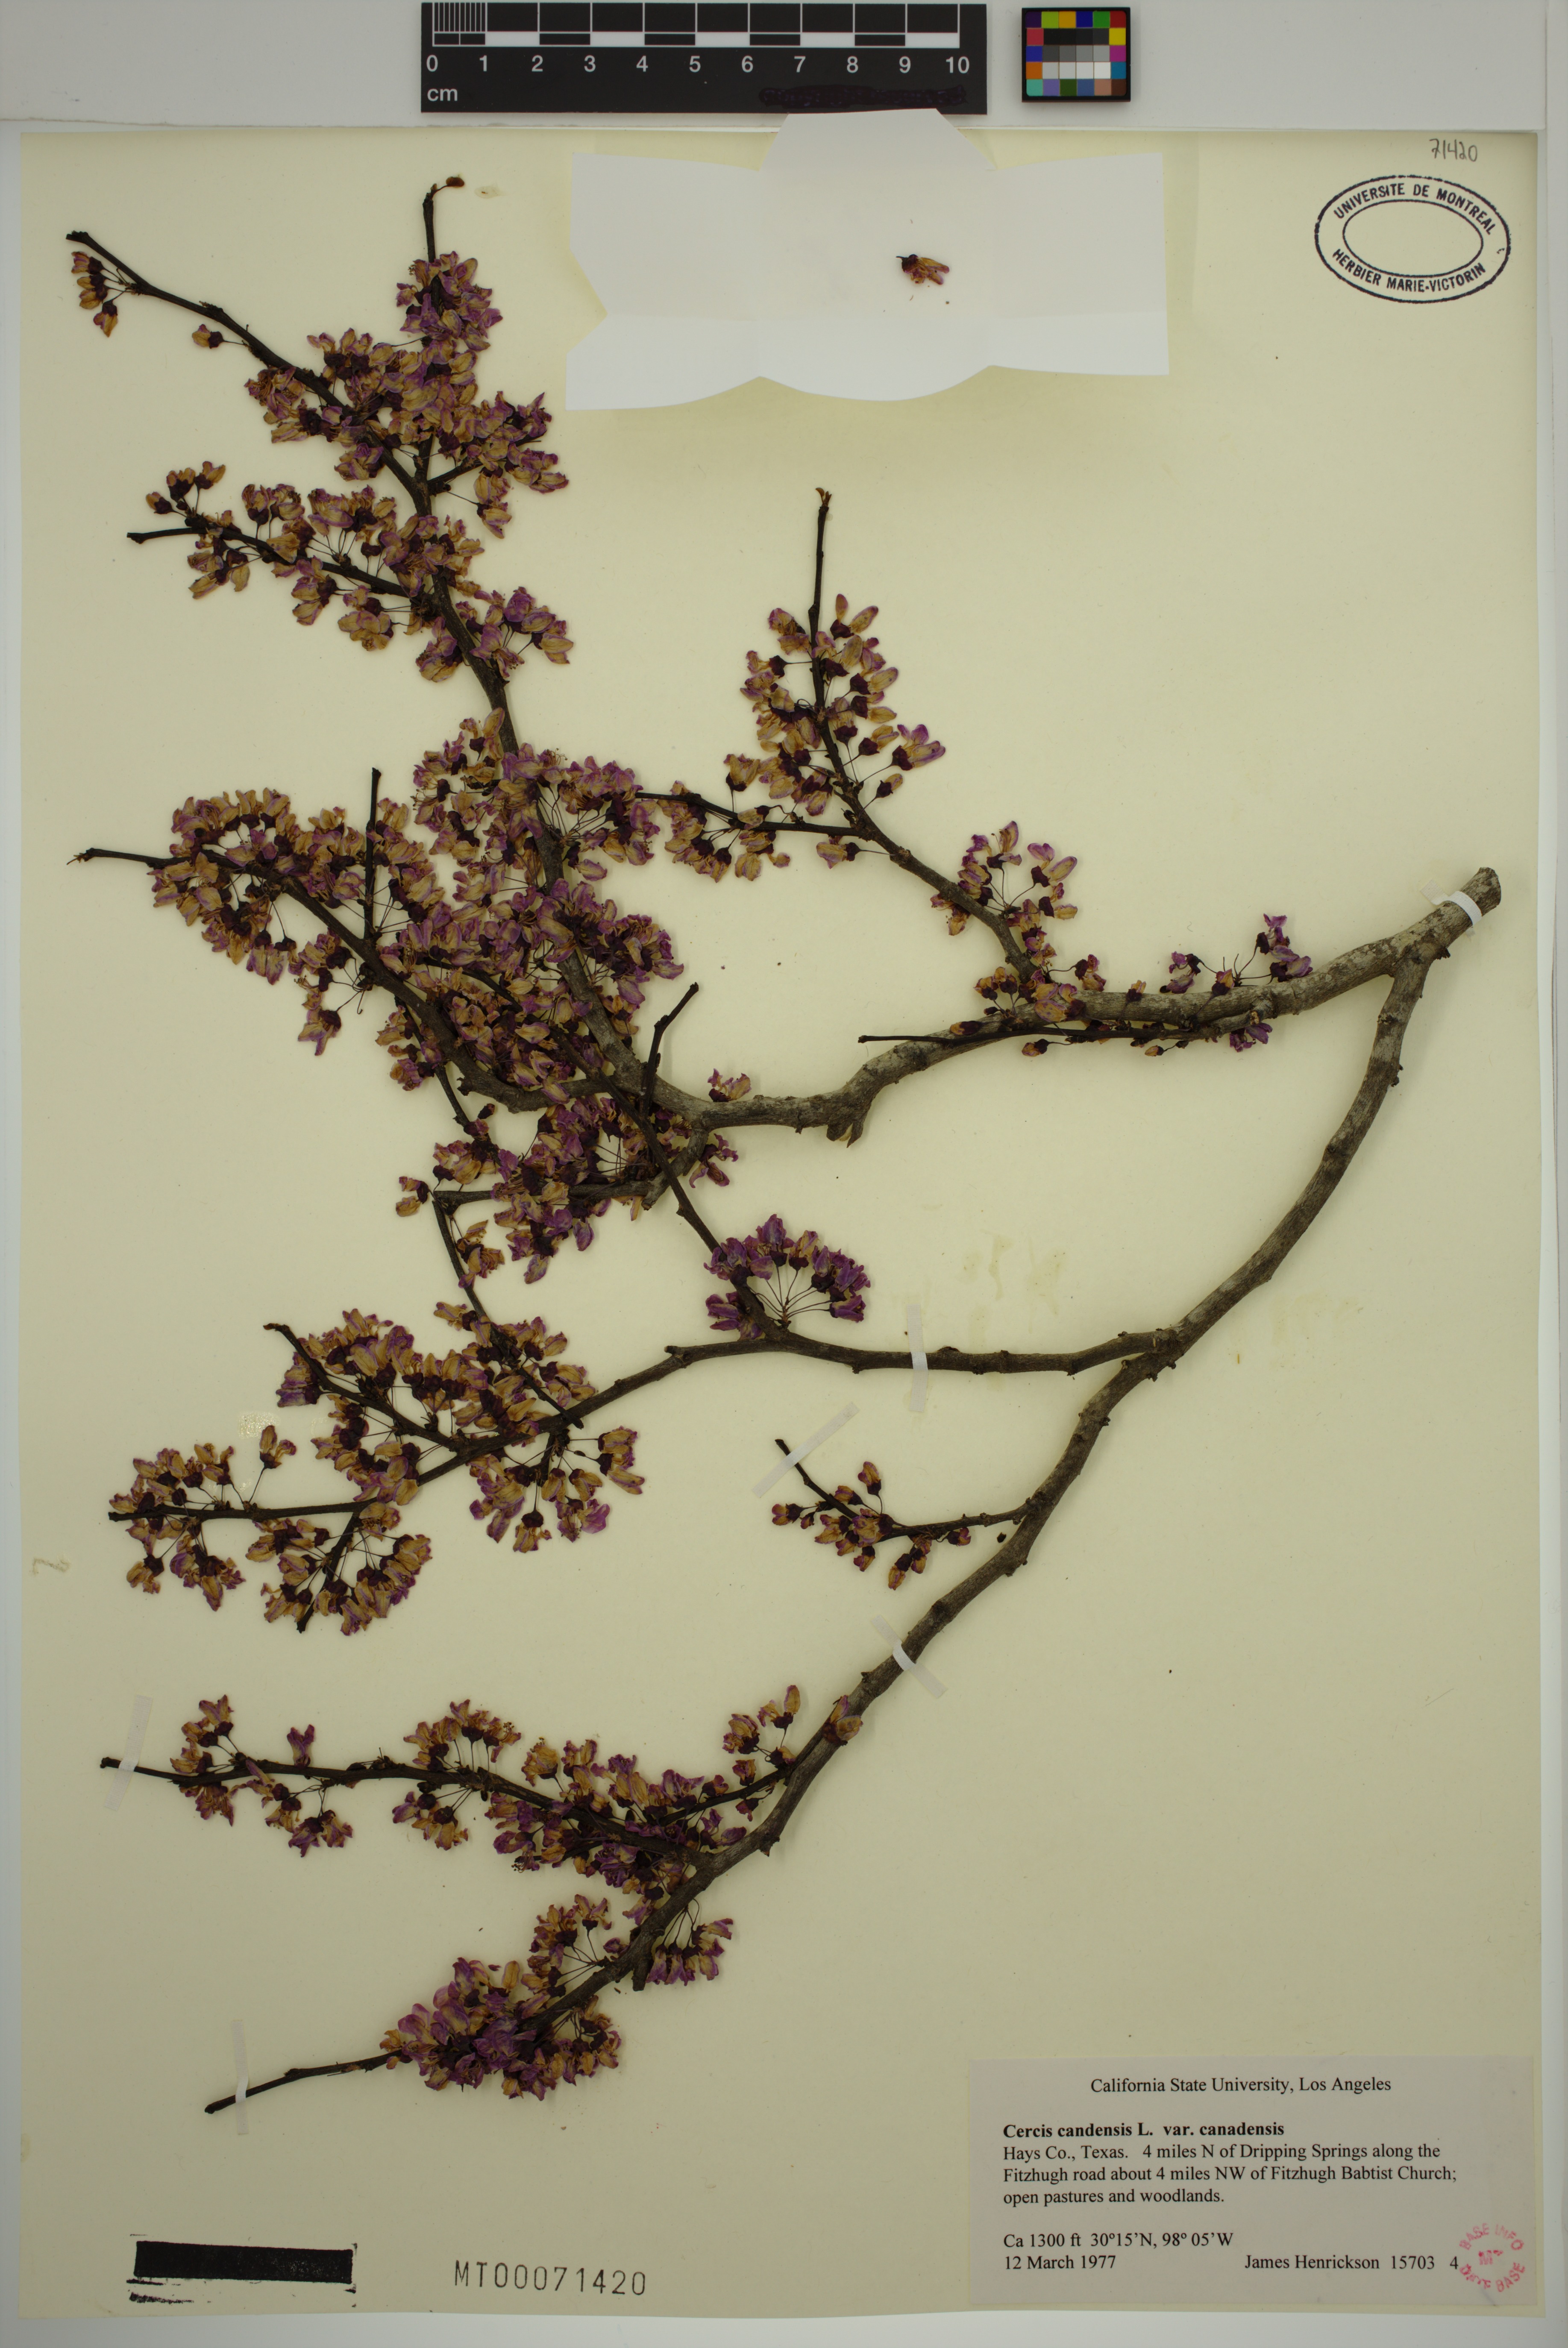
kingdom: Plantae
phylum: Tracheophyta
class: Magnoliopsida
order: Fabales
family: Fabaceae
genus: Cercis
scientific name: Cercis canadensis
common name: Eastern redbud
